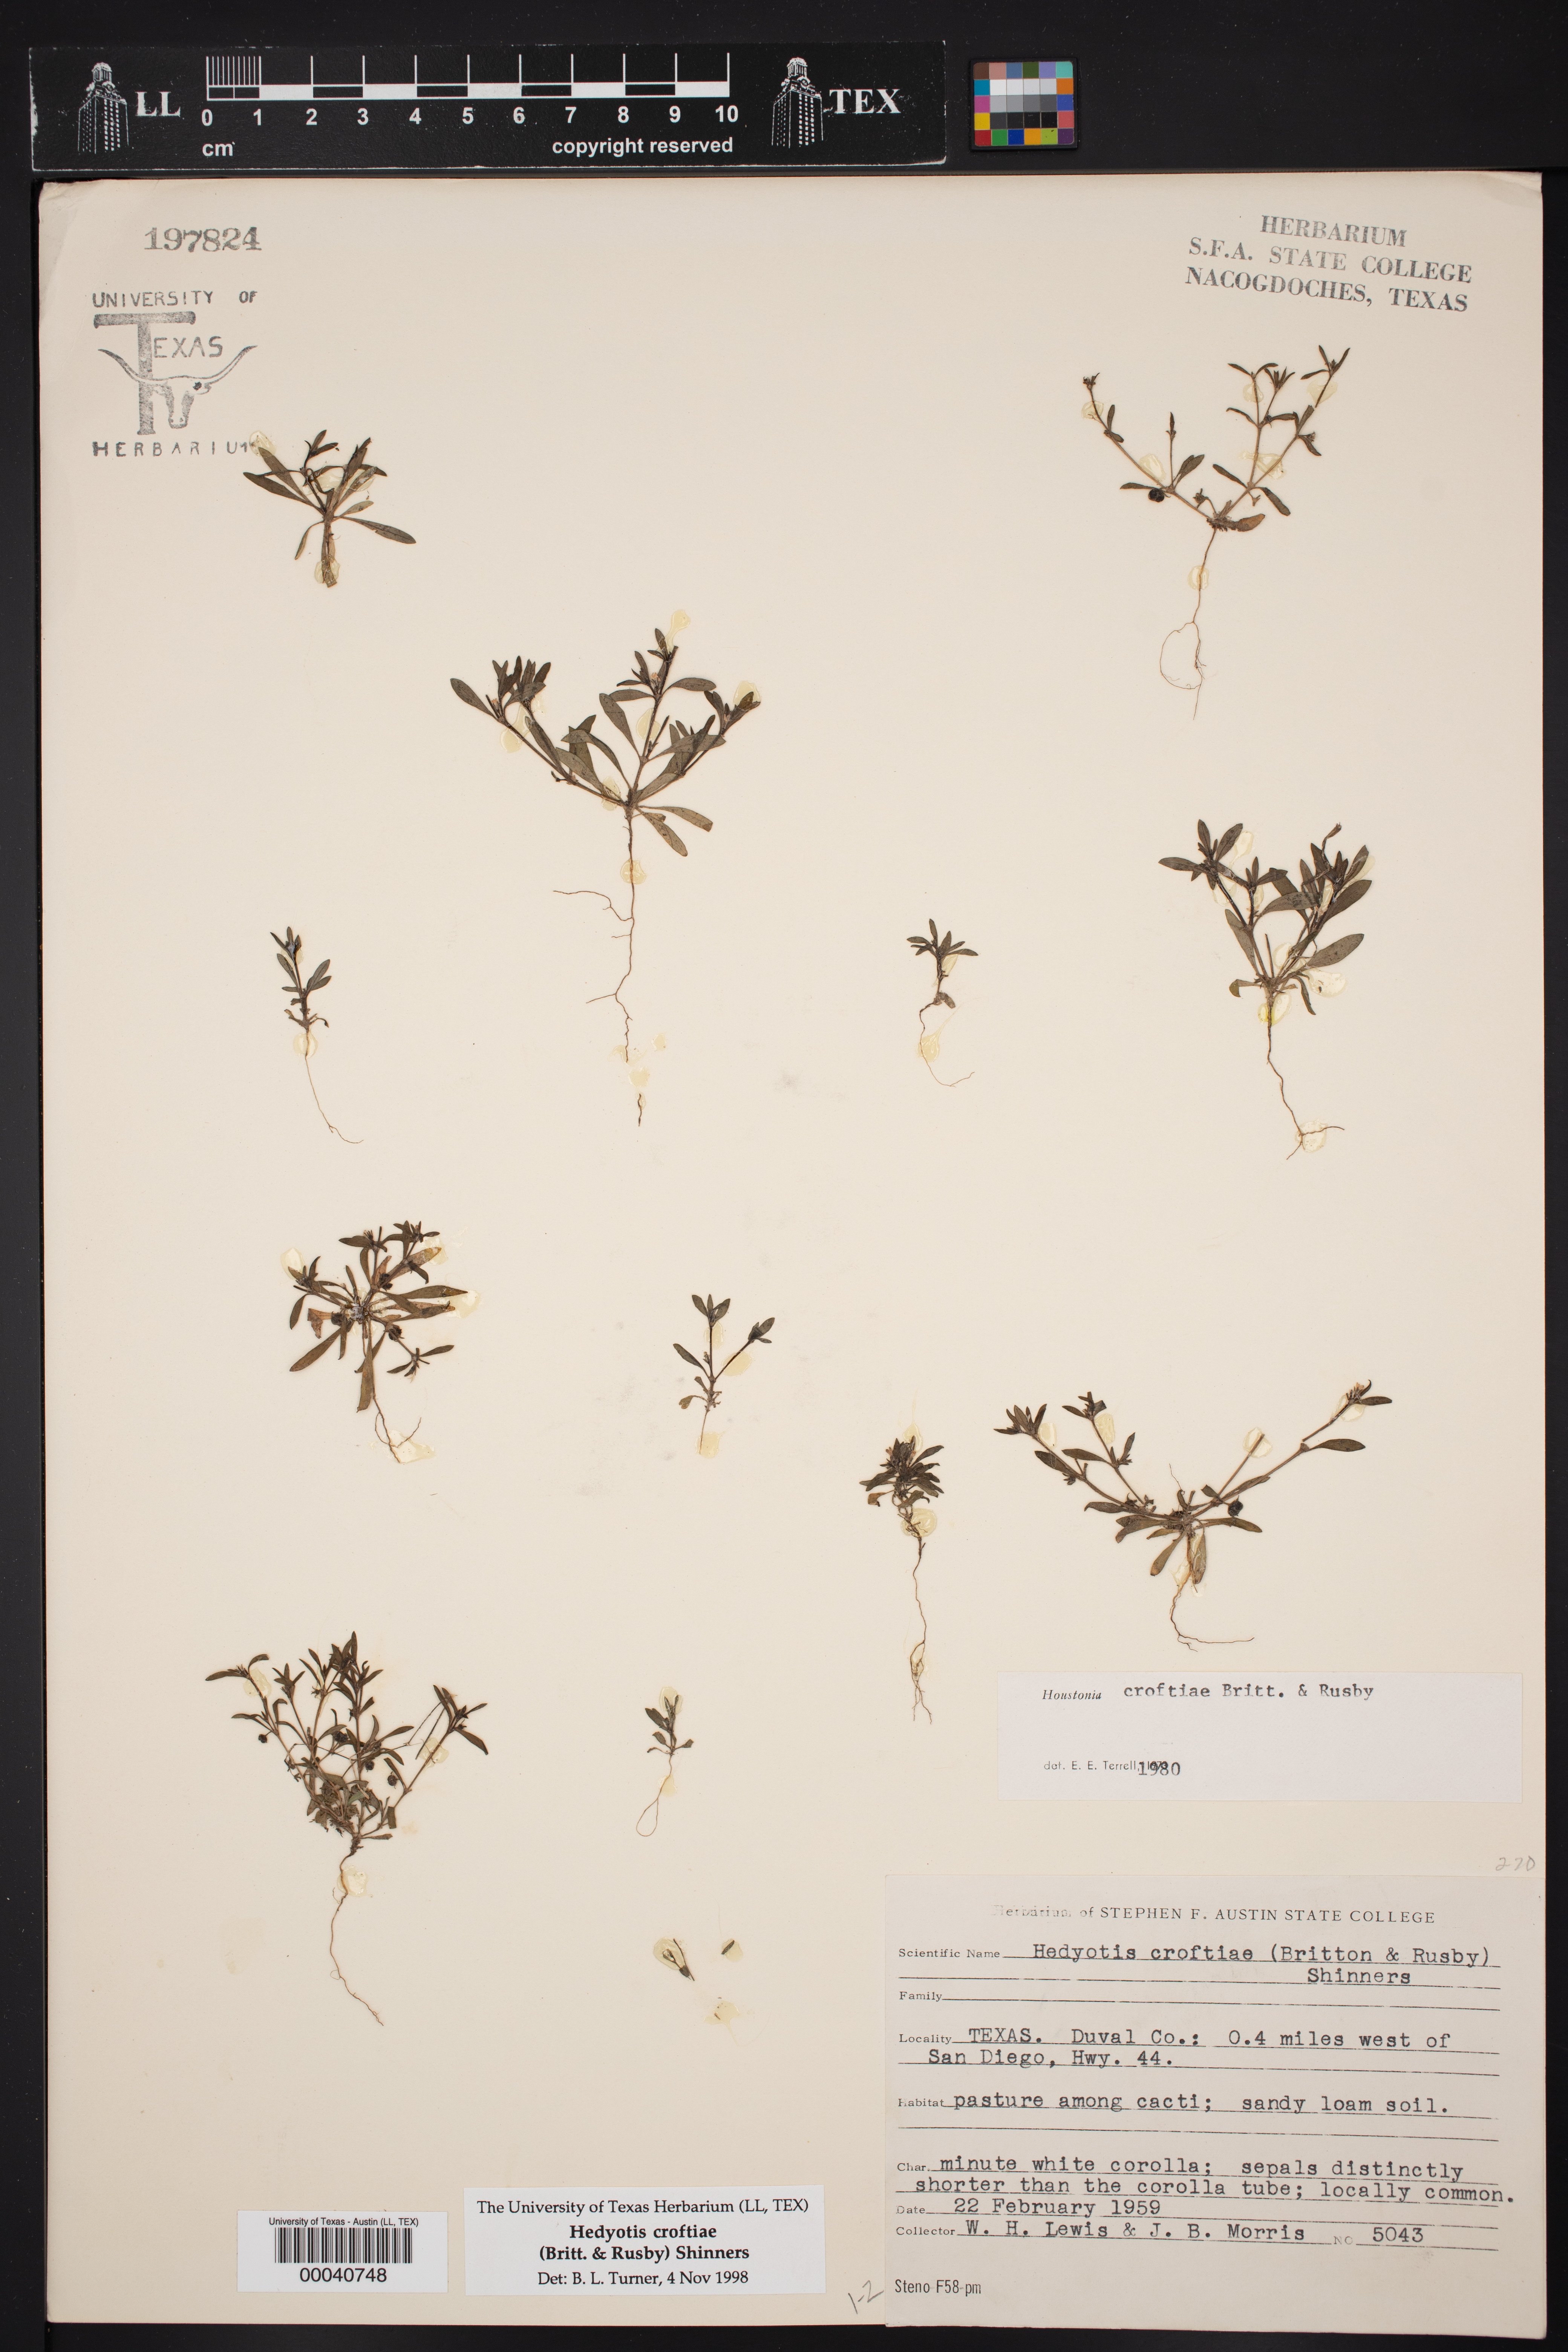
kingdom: Plantae
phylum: Tracheophyta
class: Magnoliopsida
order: Gentianales
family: Rubiaceae
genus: Houstonia
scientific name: Houstonia croftiae
